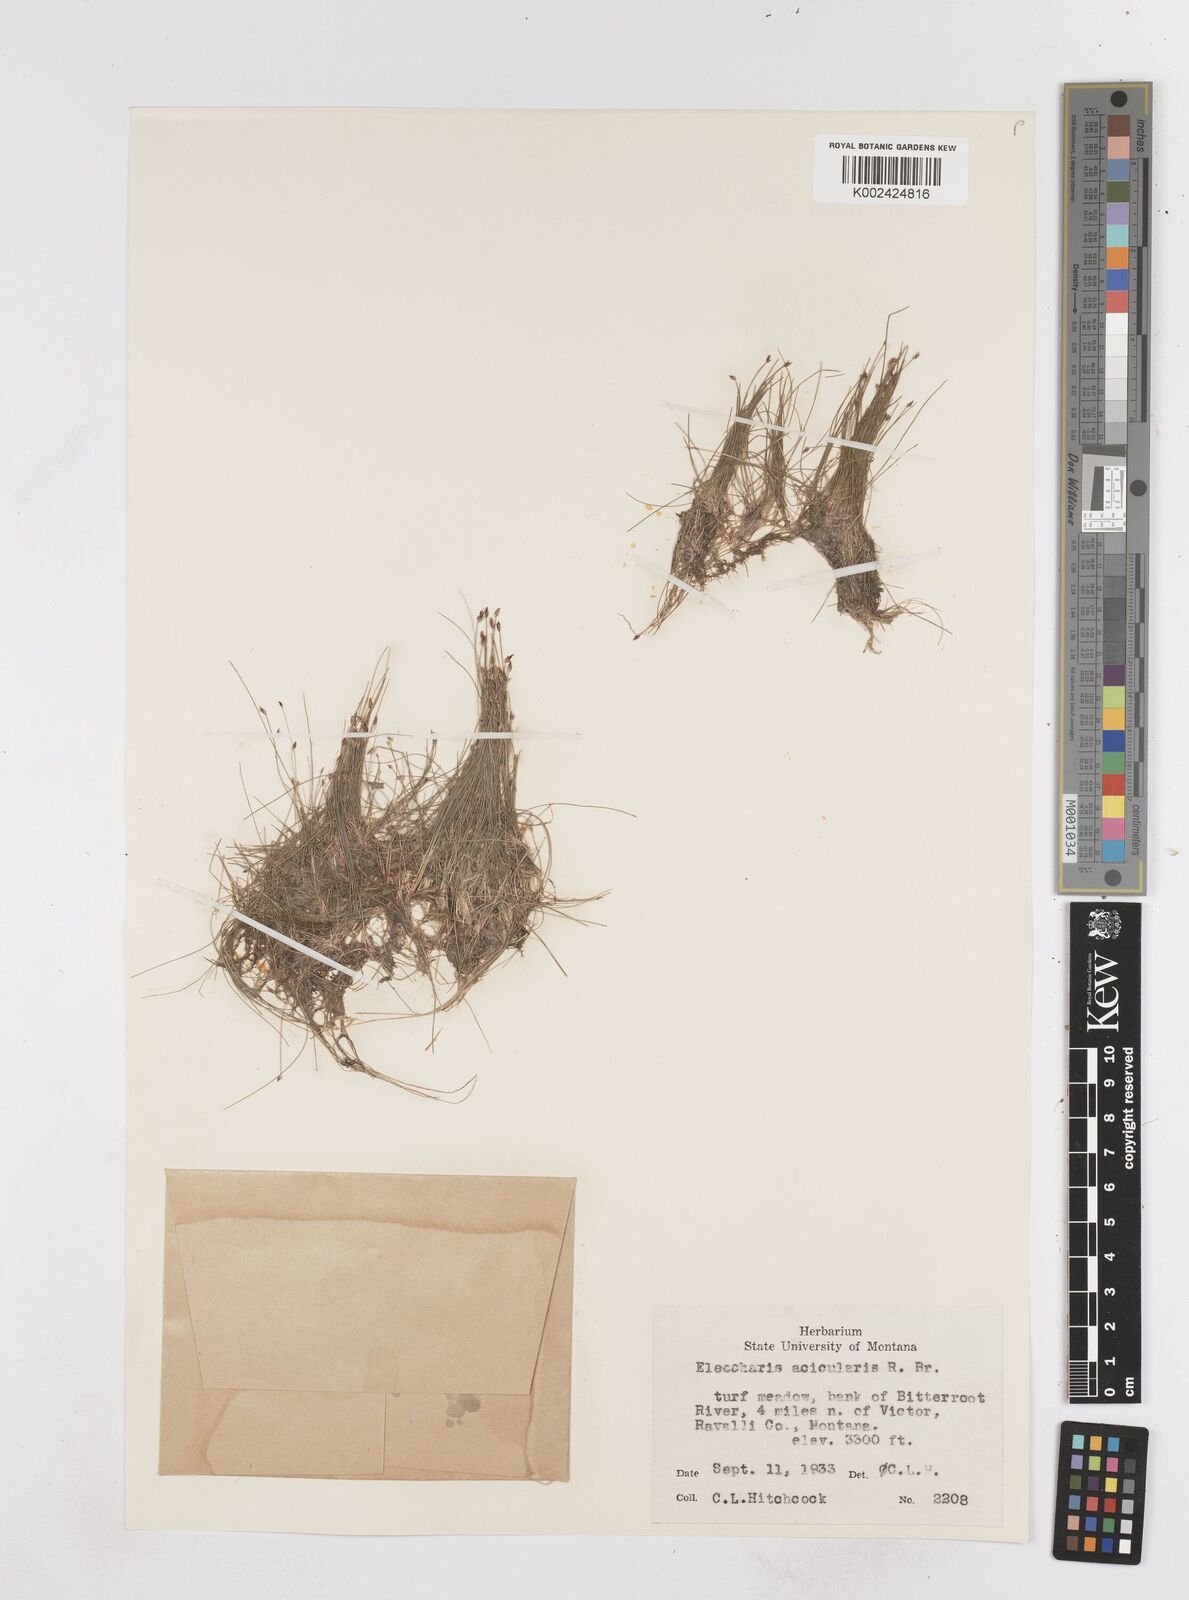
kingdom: Plantae
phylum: Tracheophyta
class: Liliopsida
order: Poales
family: Cyperaceae
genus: Eleocharis
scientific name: Eleocharis acicularis
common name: Needle spike-rush
